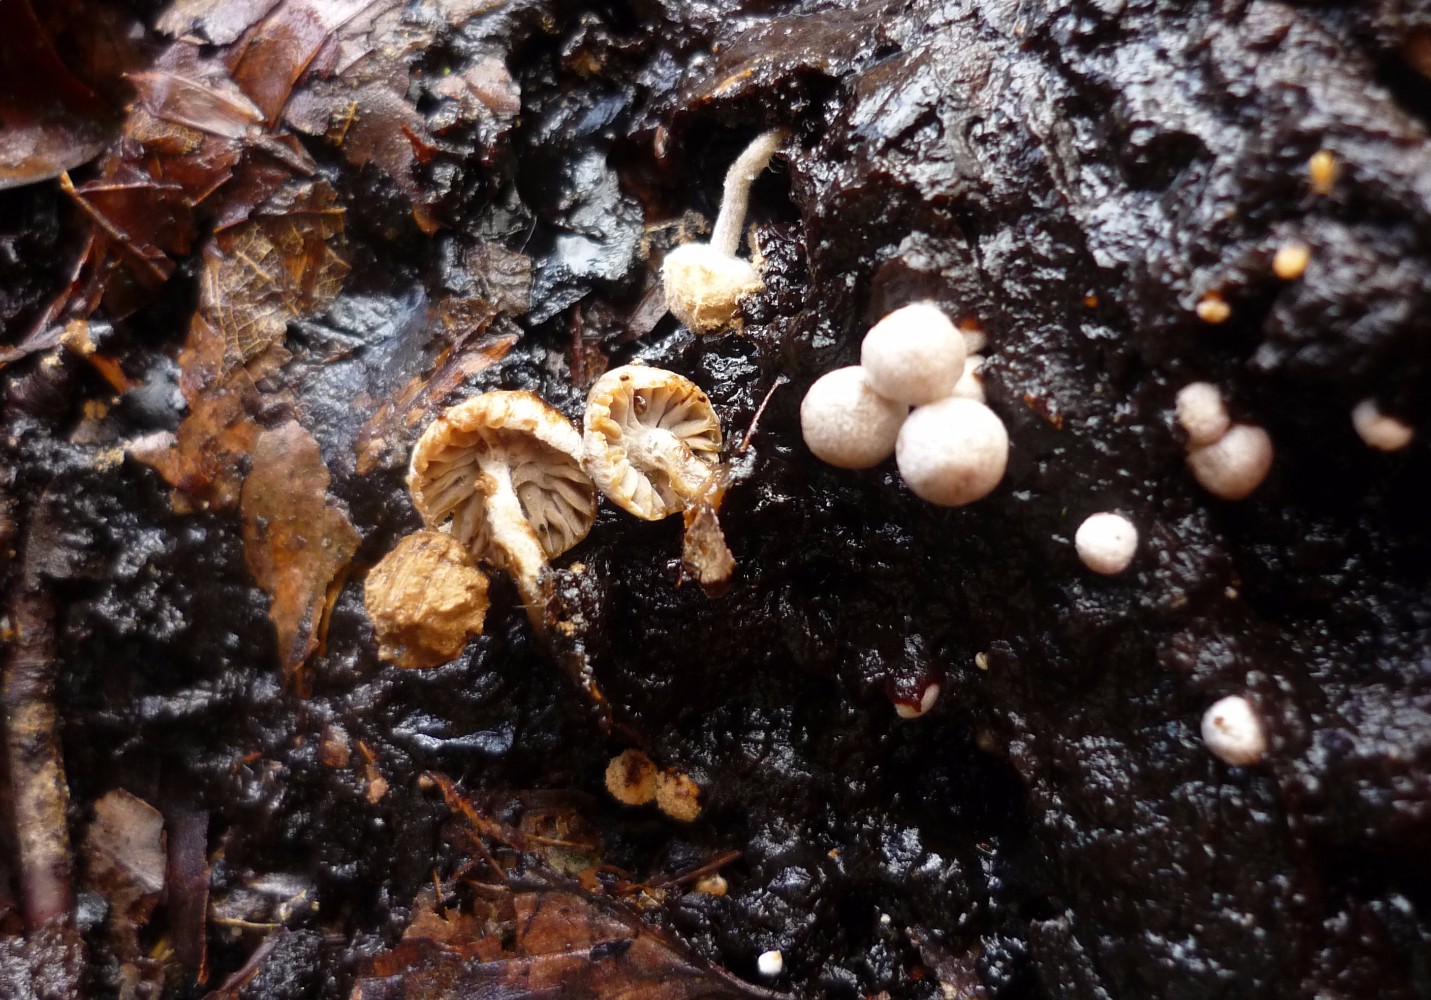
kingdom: Fungi
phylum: Basidiomycota
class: Agaricomycetes
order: Agaricales
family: Lyophyllaceae
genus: Asterophora
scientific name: Asterophora lycoperdoides
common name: brunpudret snyltehat
